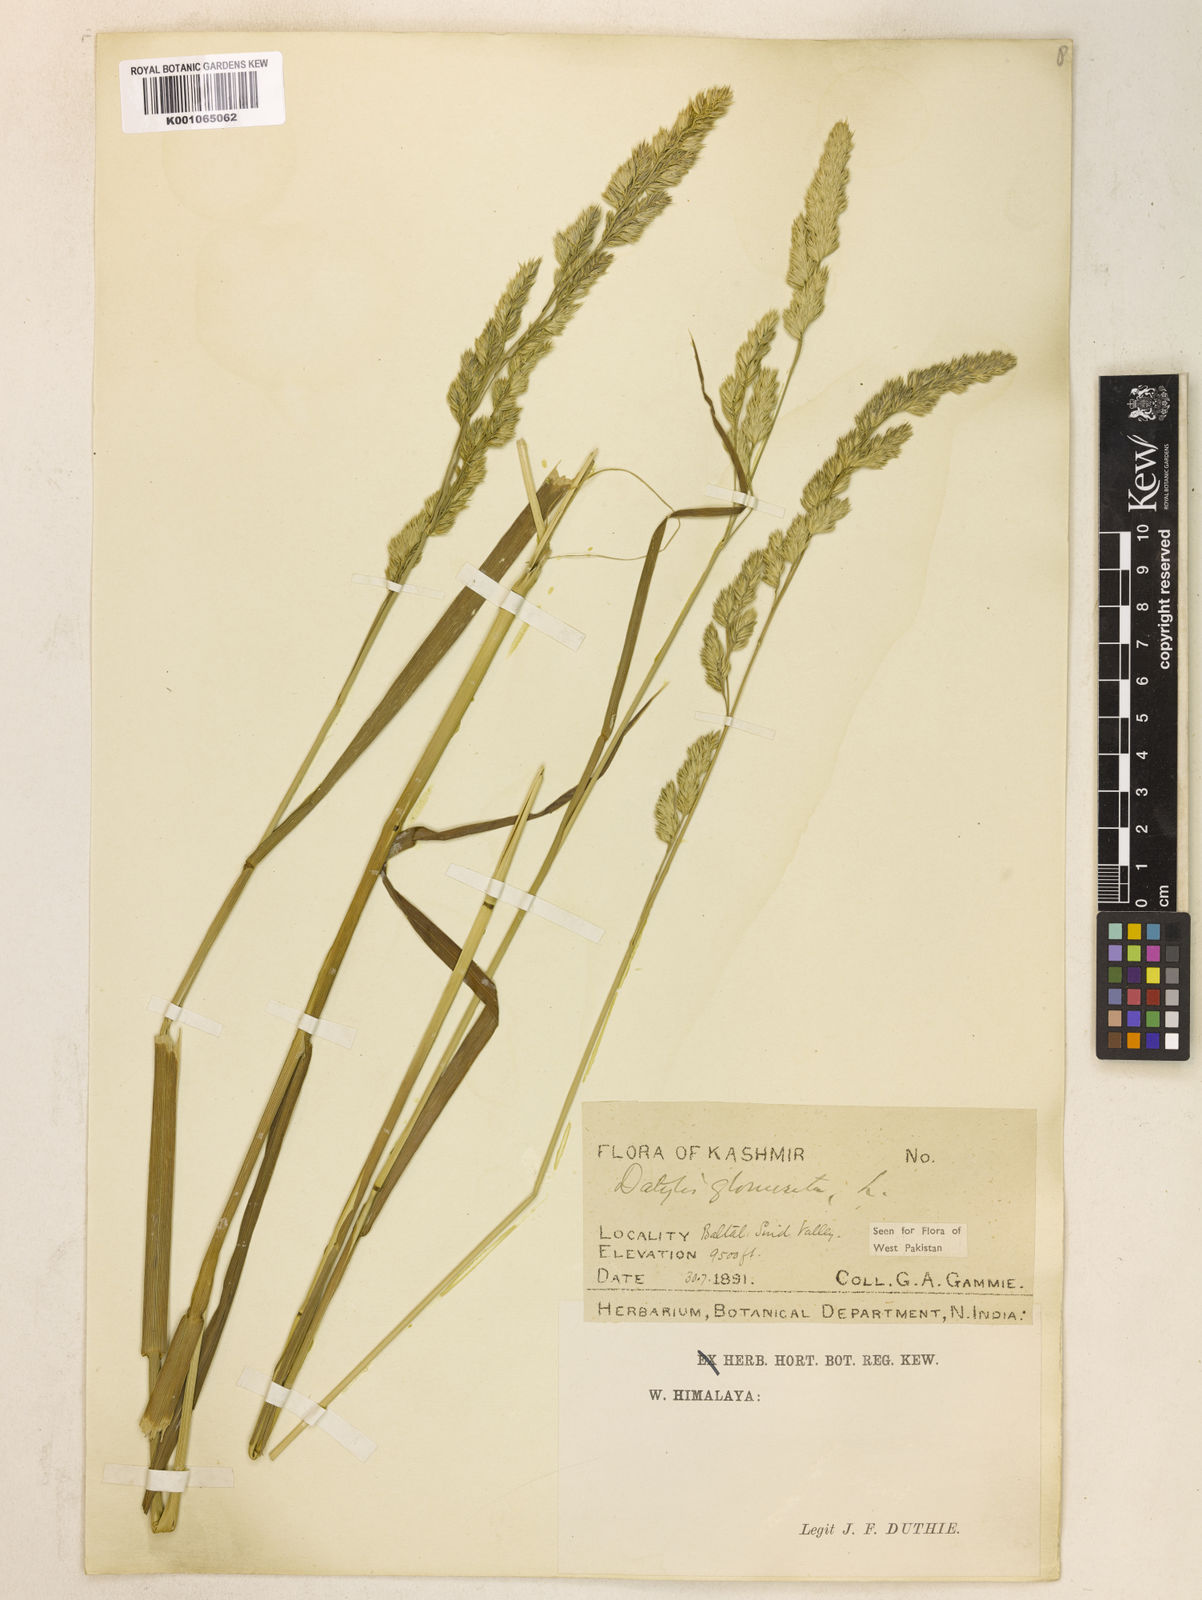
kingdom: Plantae
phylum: Tracheophyta
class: Liliopsida
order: Poales
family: Poaceae
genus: Dactylis
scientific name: Dactylis glomerata
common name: Orchardgrass
